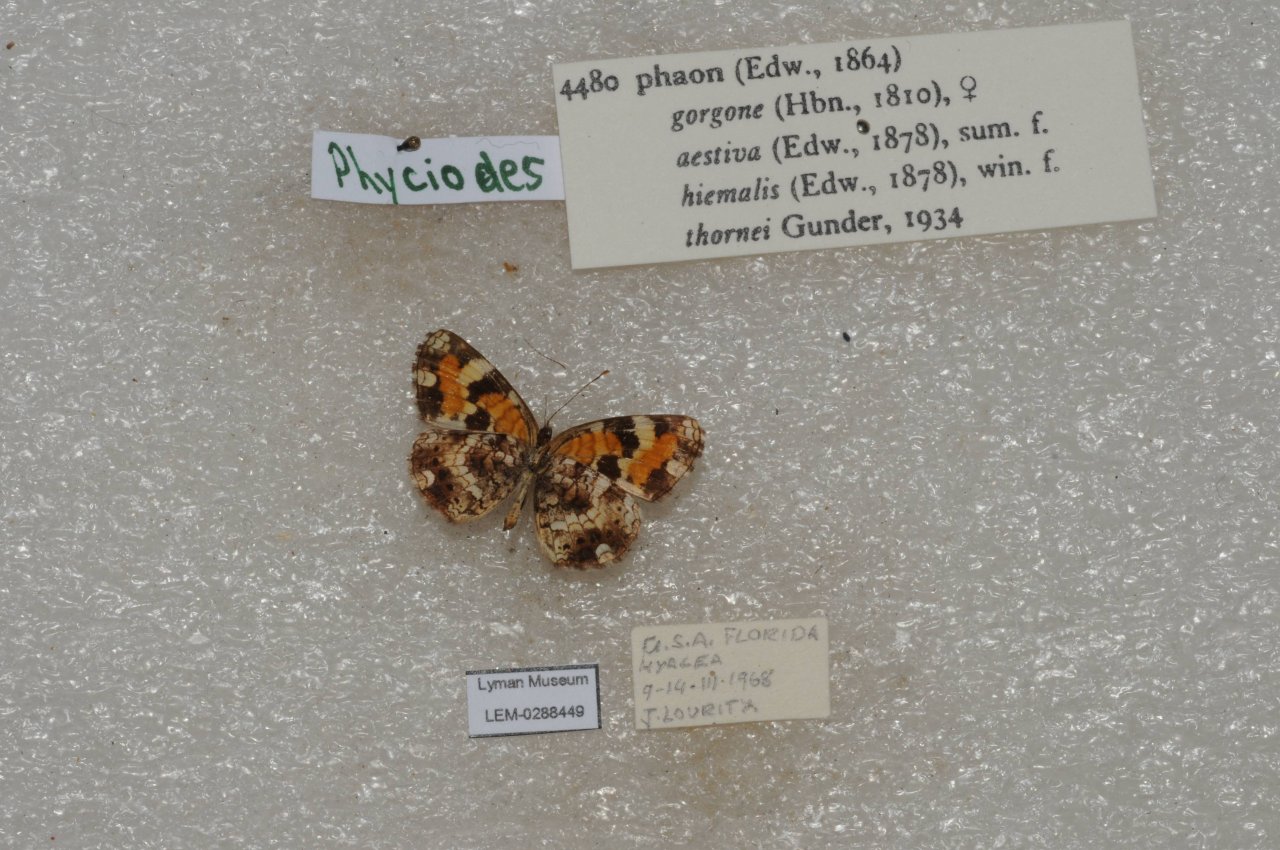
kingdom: Animalia
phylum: Arthropoda
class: Insecta
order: Lepidoptera
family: Nymphalidae
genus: Phyciodes
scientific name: Phyciodes phaon
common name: Phaon Crescent
